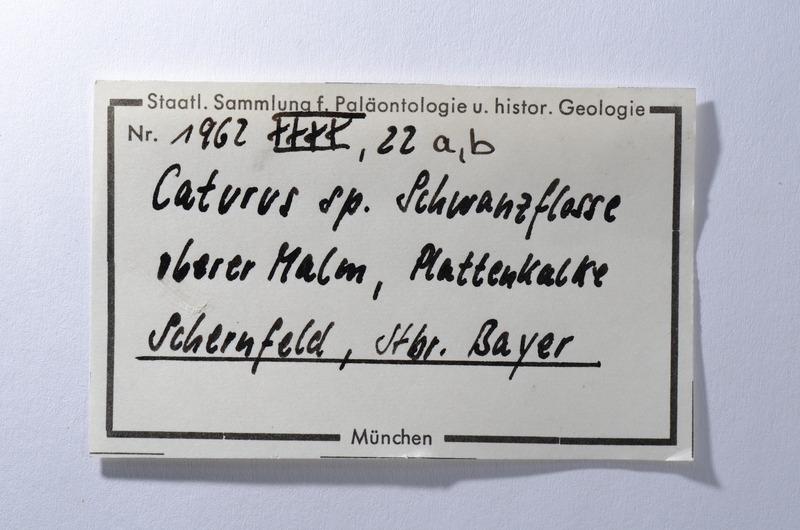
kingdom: Animalia
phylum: Chordata
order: Amiiformes
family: Caturidae
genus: Caturus
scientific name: Caturus
